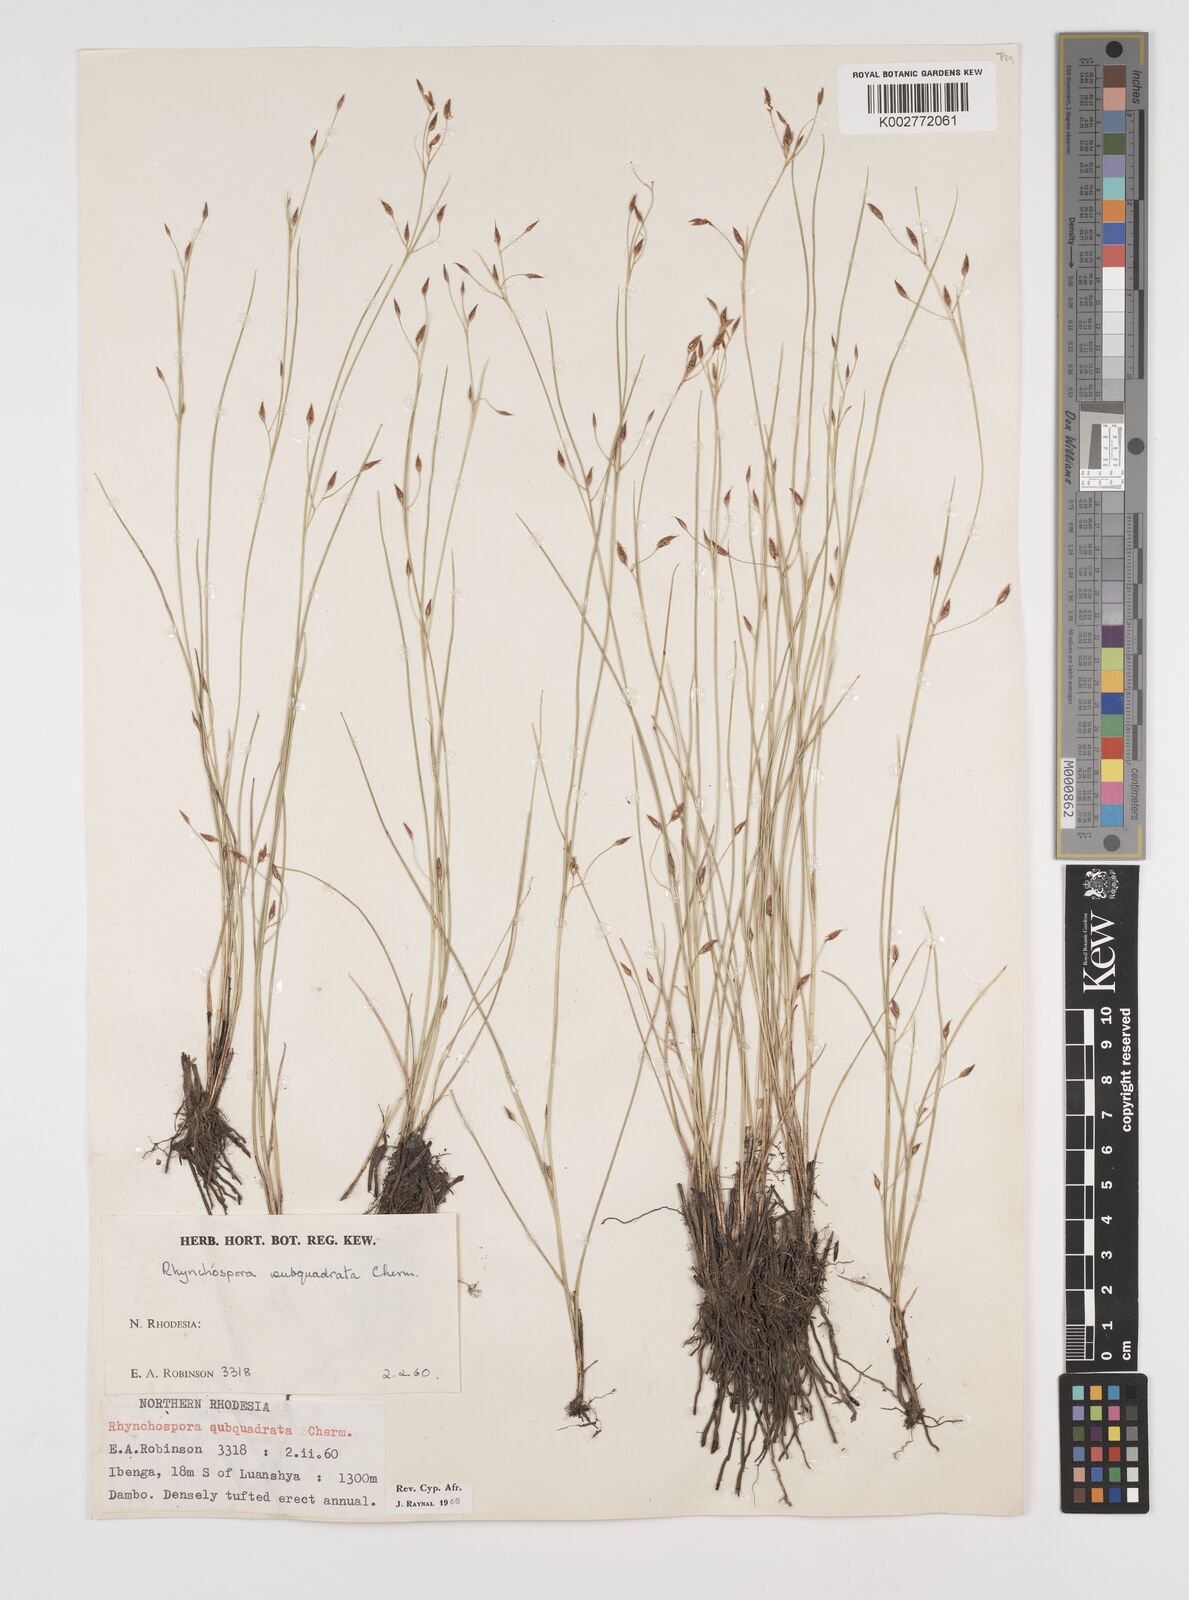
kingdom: Plantae
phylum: Tracheophyta
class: Liliopsida
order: Poales
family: Cyperaceae
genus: Rhynchospora
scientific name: Rhynchospora gracillima
